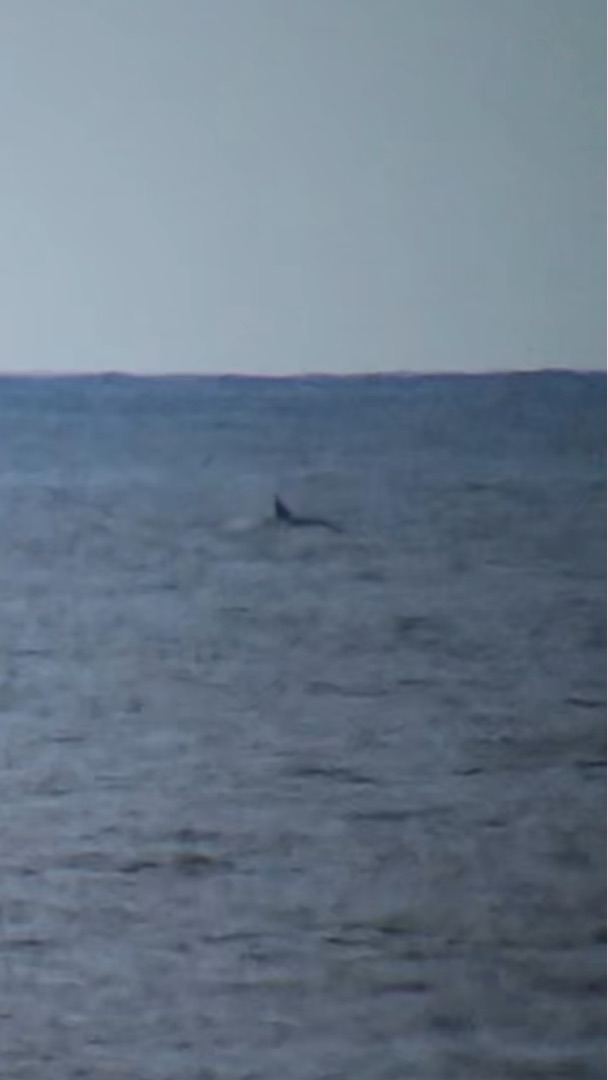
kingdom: Animalia
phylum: Chordata
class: Mammalia
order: Cetacea
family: Delphinidae
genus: Orcinus
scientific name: Orcinus orca
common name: Spækhugger
